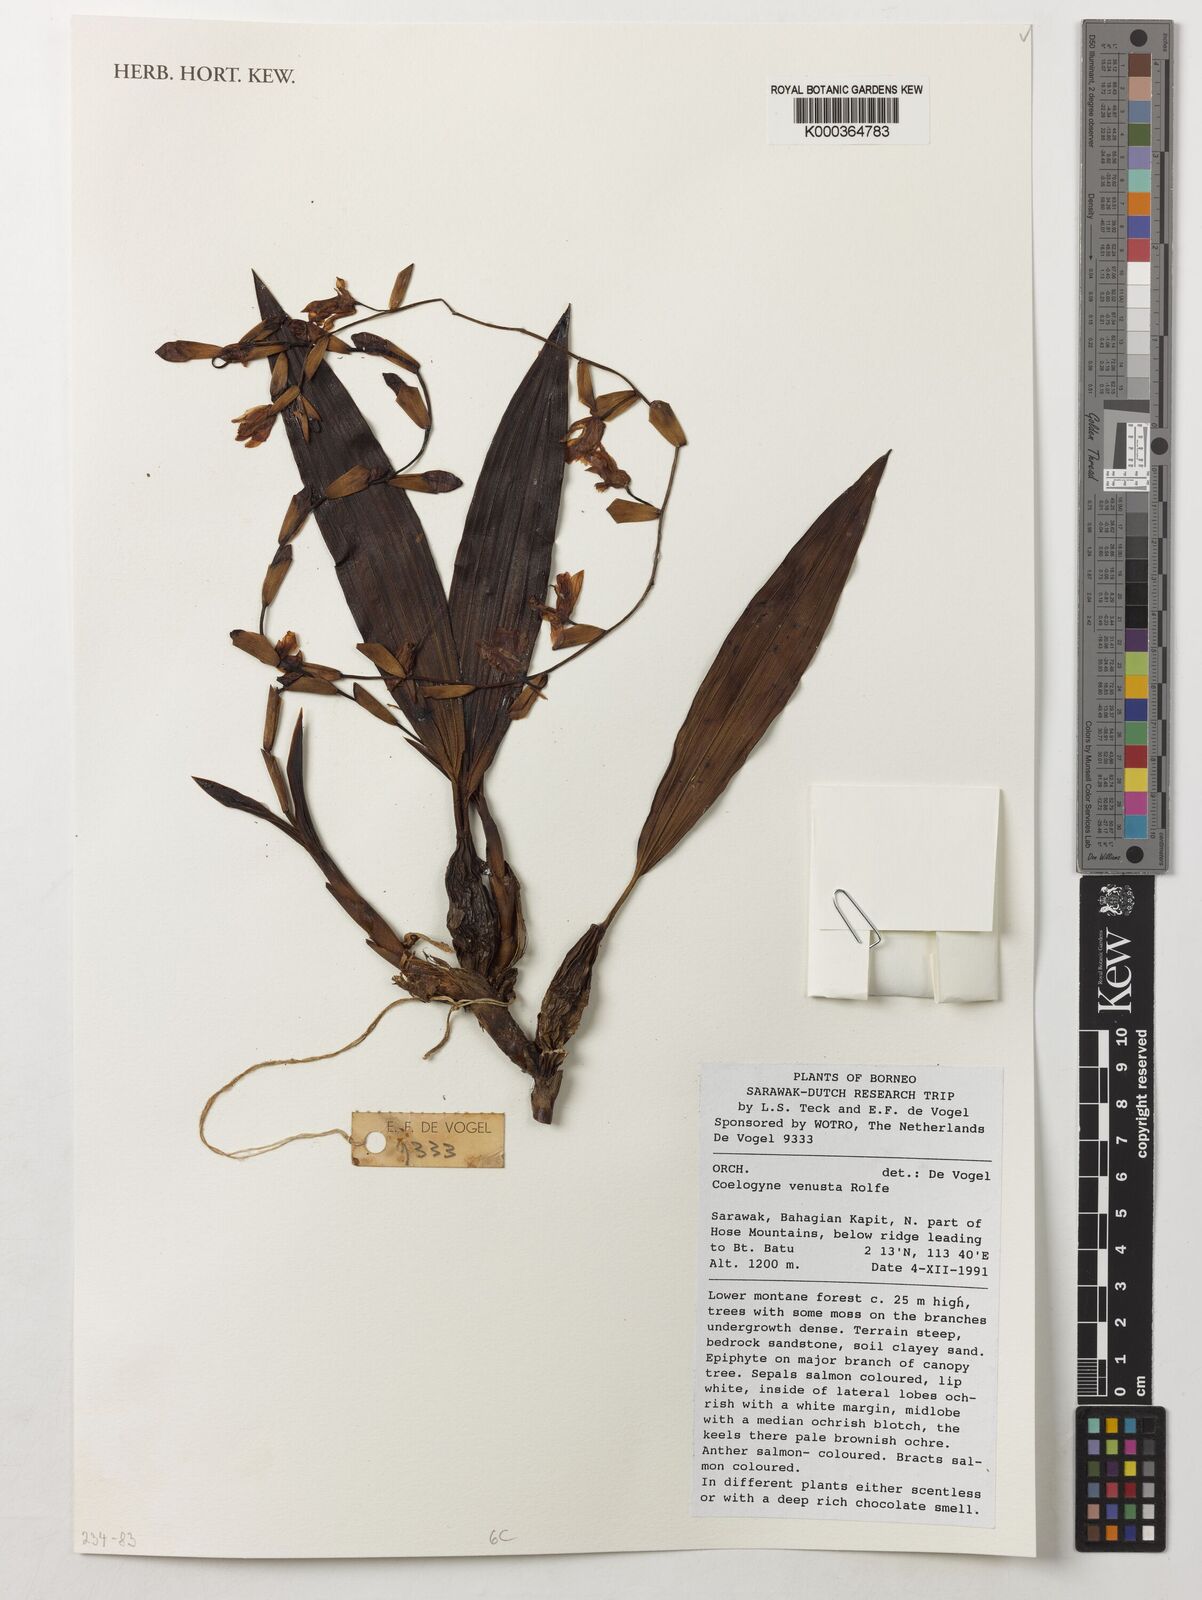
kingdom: Plantae
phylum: Tracheophyta
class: Liliopsida
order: Asparagales
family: Orchidaceae
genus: Coelogyne
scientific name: Coelogyne venusta
